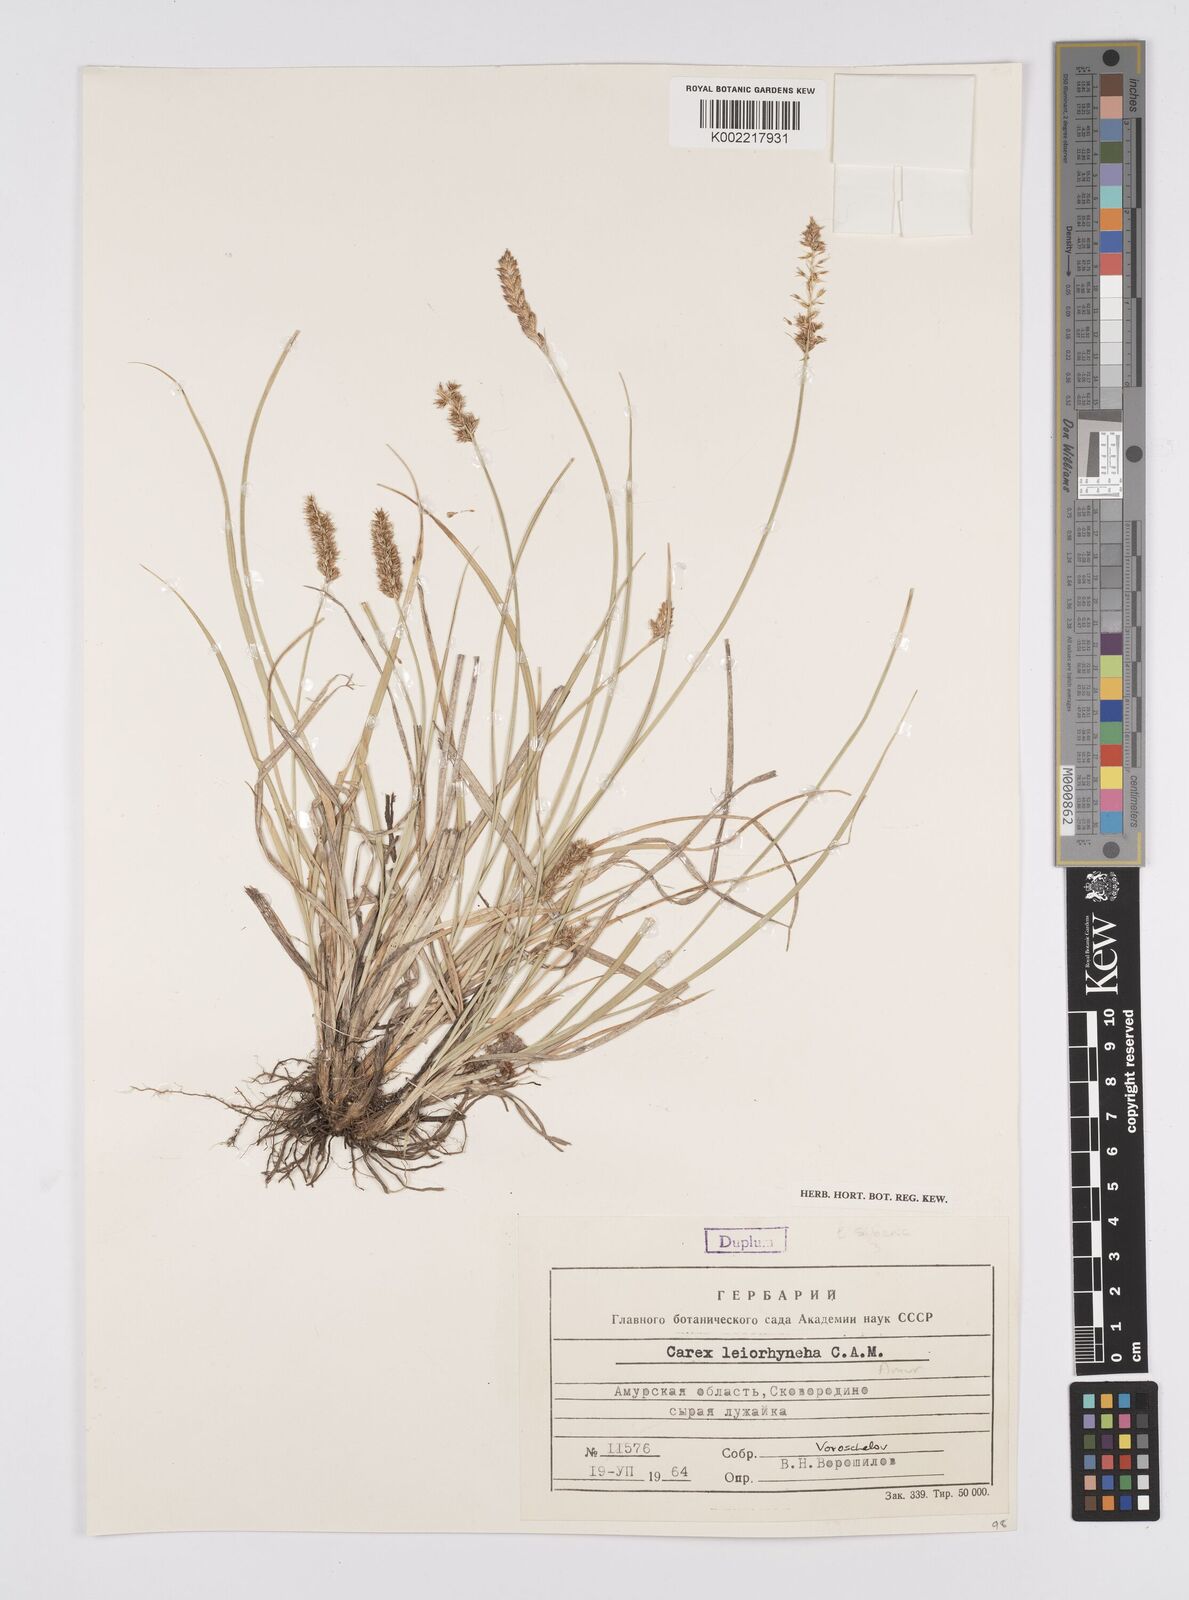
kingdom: Plantae
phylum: Tracheophyta
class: Liliopsida
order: Poales
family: Cyperaceae
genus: Carex
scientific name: Carex leiorhyncha
